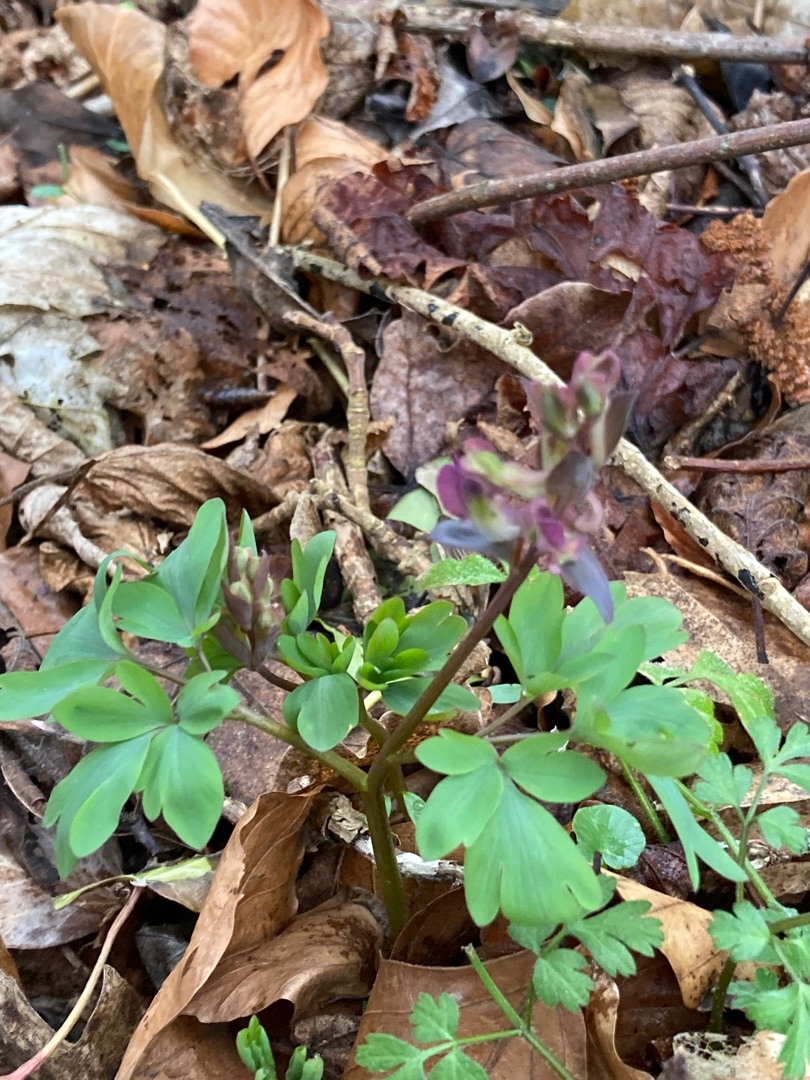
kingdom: Plantae
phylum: Tracheophyta
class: Magnoliopsida
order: Ranunculales
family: Papaveraceae
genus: Corydalis
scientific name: Corydalis cava
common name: Hulrodet lærkespore
